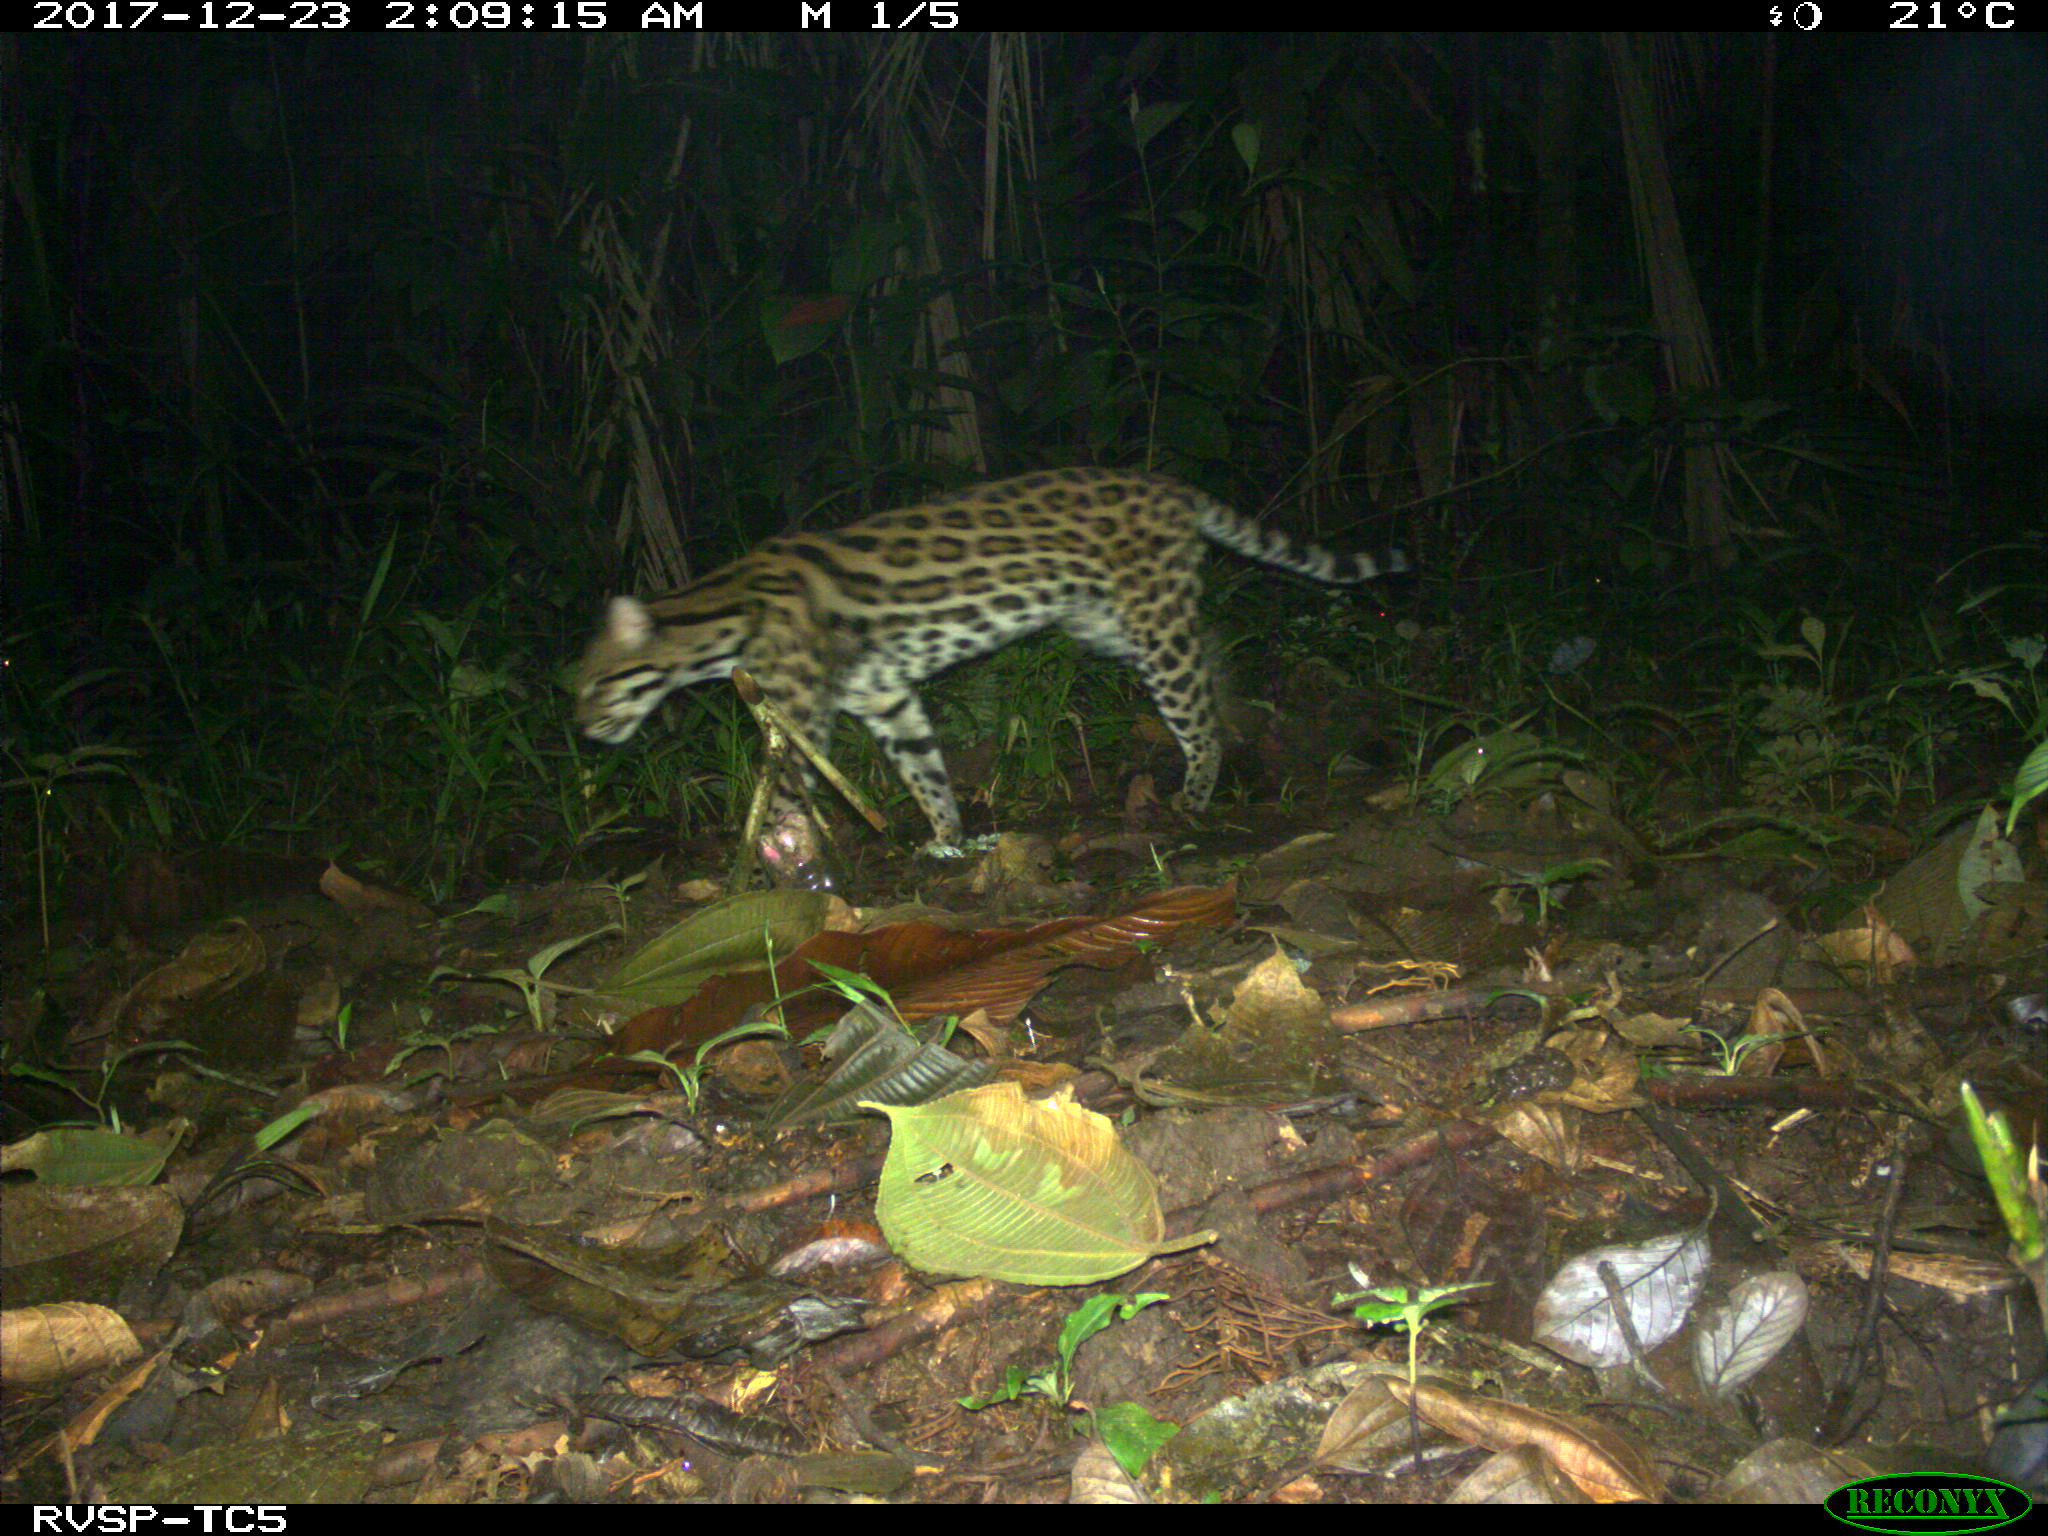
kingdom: Animalia
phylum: Chordata
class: Mammalia
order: Carnivora
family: Felidae
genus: Leopardus
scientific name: Leopardus pardalis
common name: Ocelot
